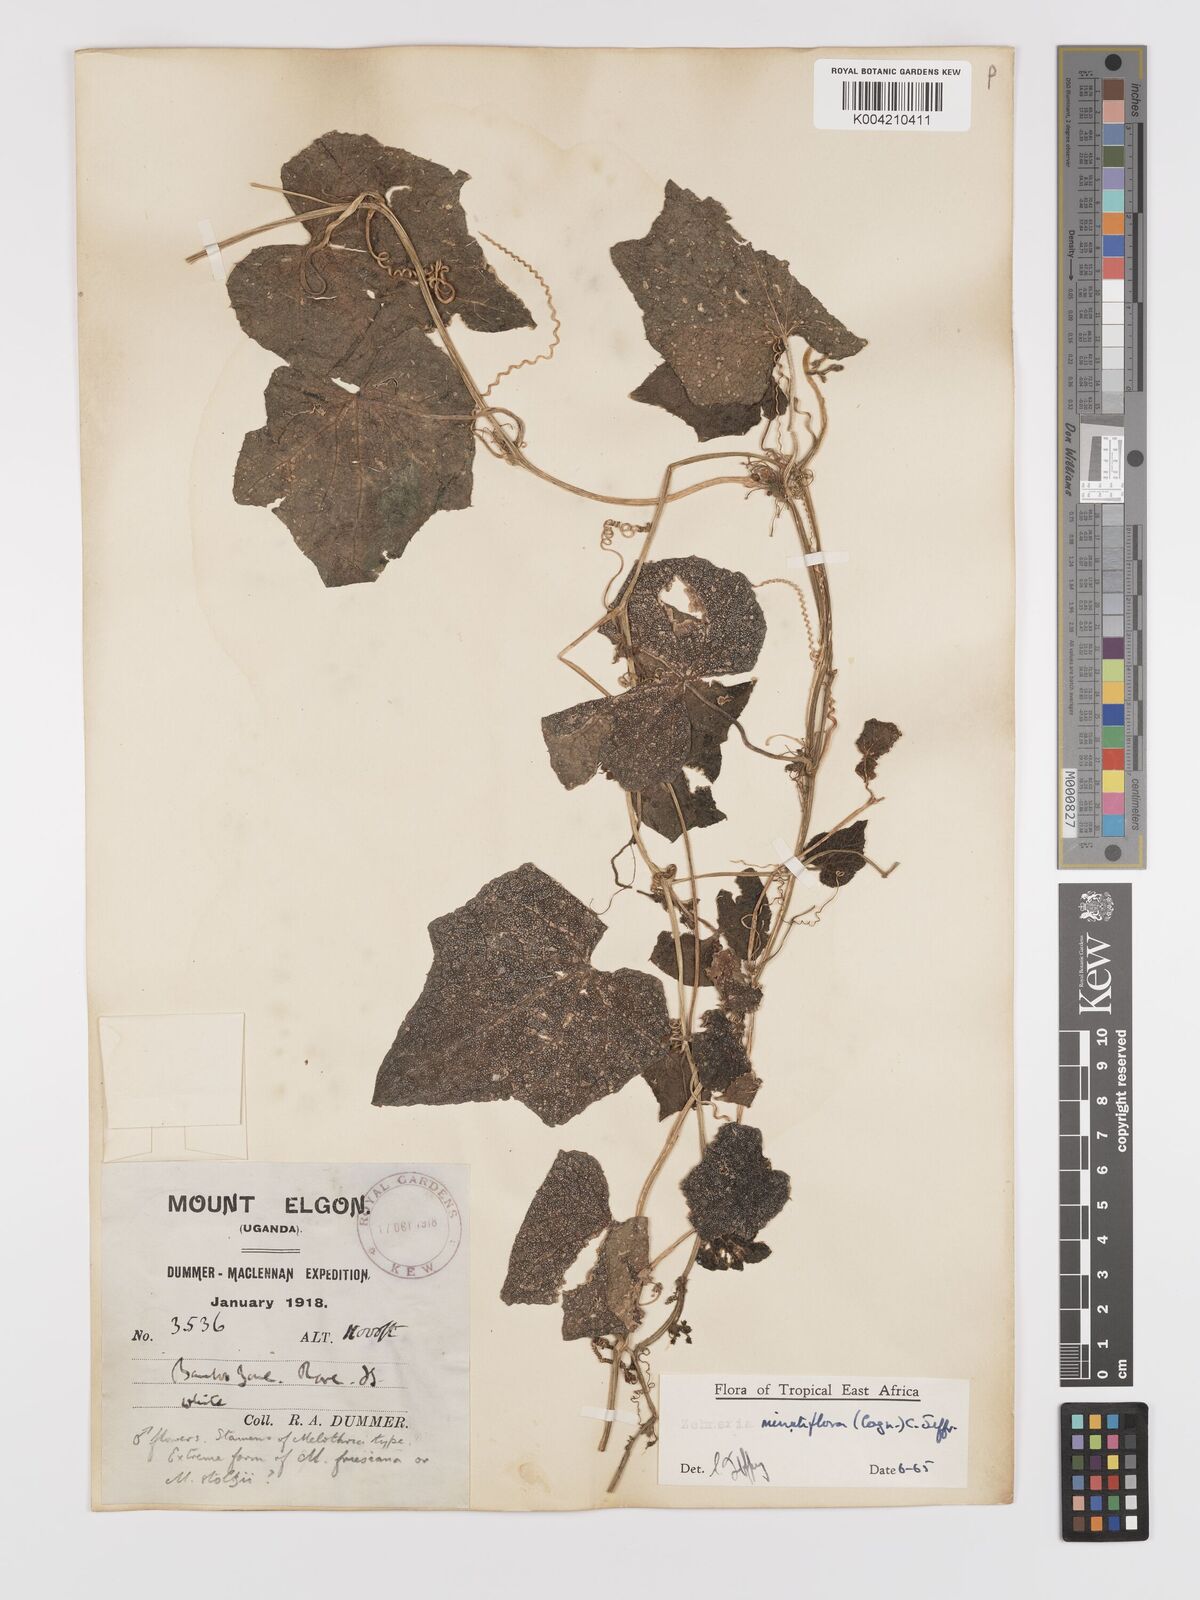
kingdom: Plantae
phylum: Tracheophyta
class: Magnoliopsida
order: Cucurbitales
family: Cucurbitaceae
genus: Zehneria
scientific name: Zehneria minutiflora
